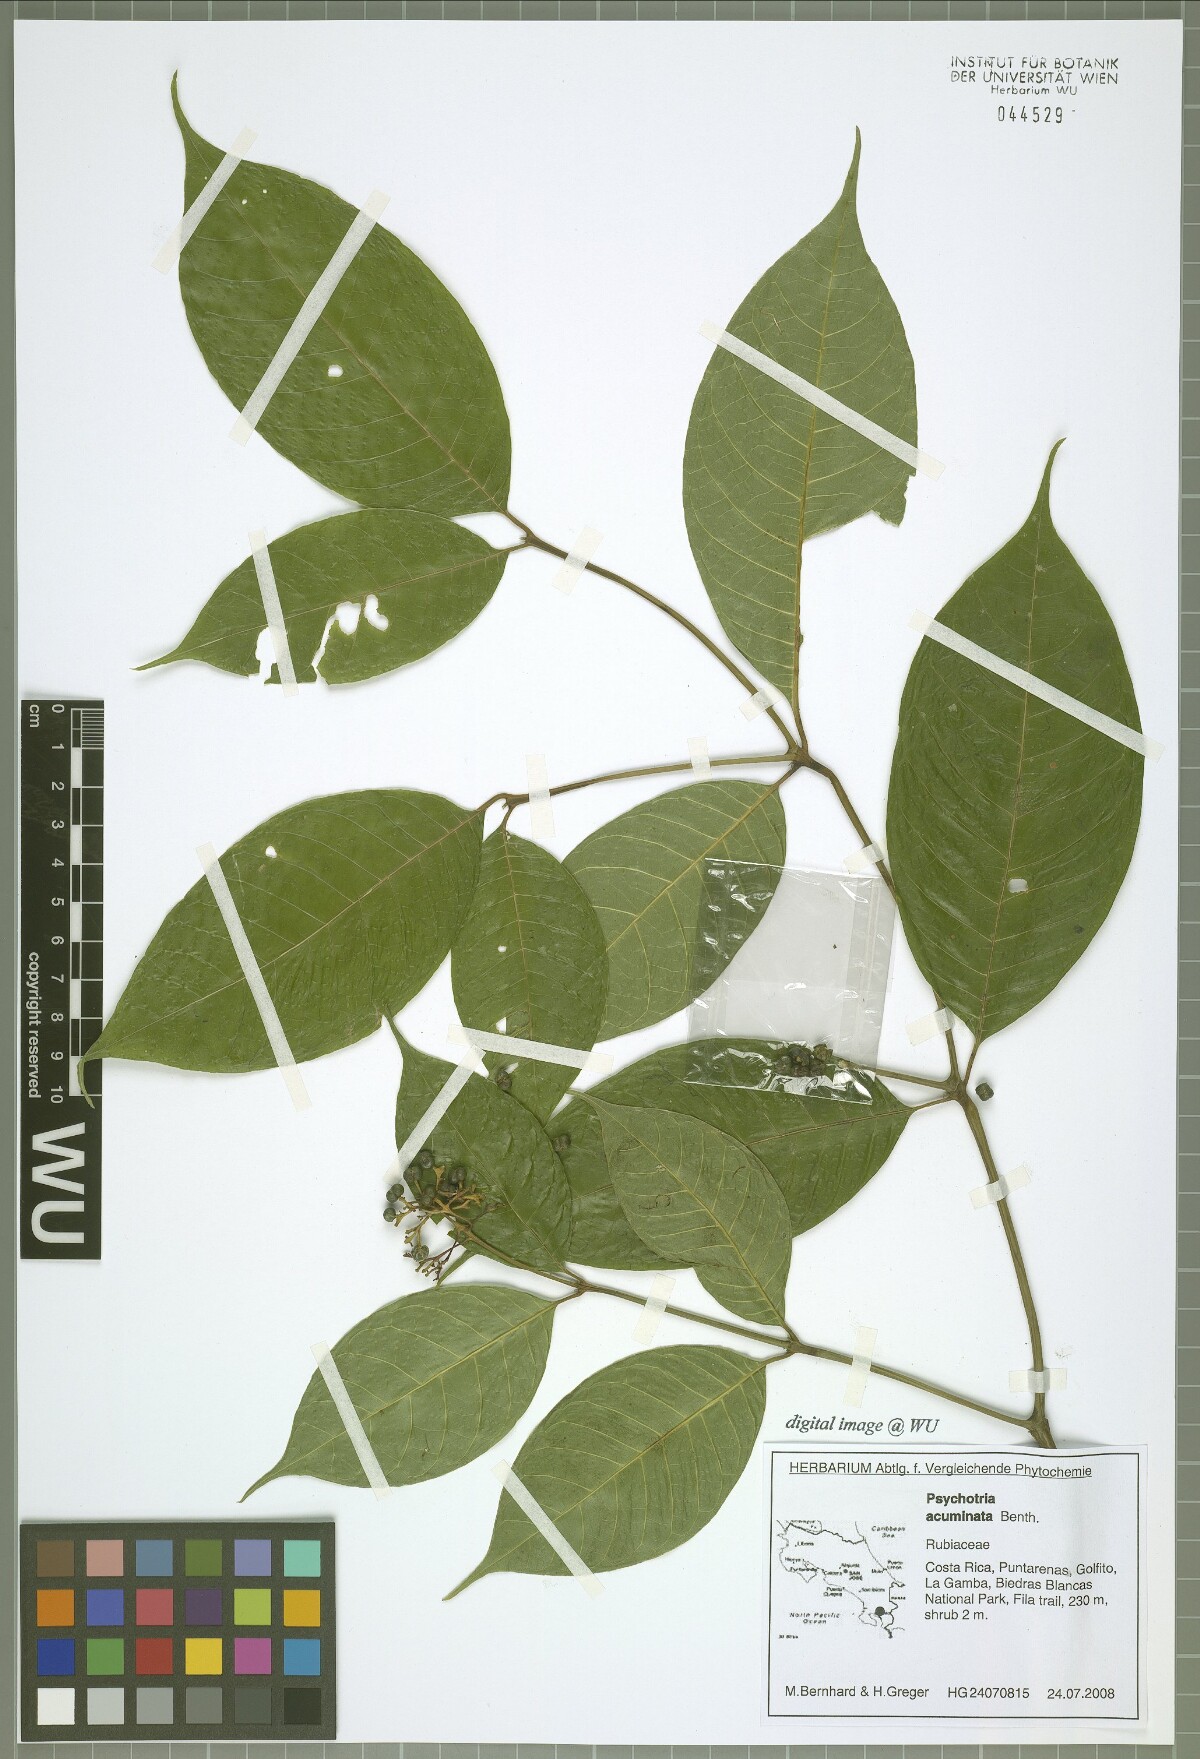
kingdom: Plantae
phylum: Tracheophyta
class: Magnoliopsida
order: Gentianales
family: Rubiaceae
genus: Palicourea
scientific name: Palicourea acuminata
